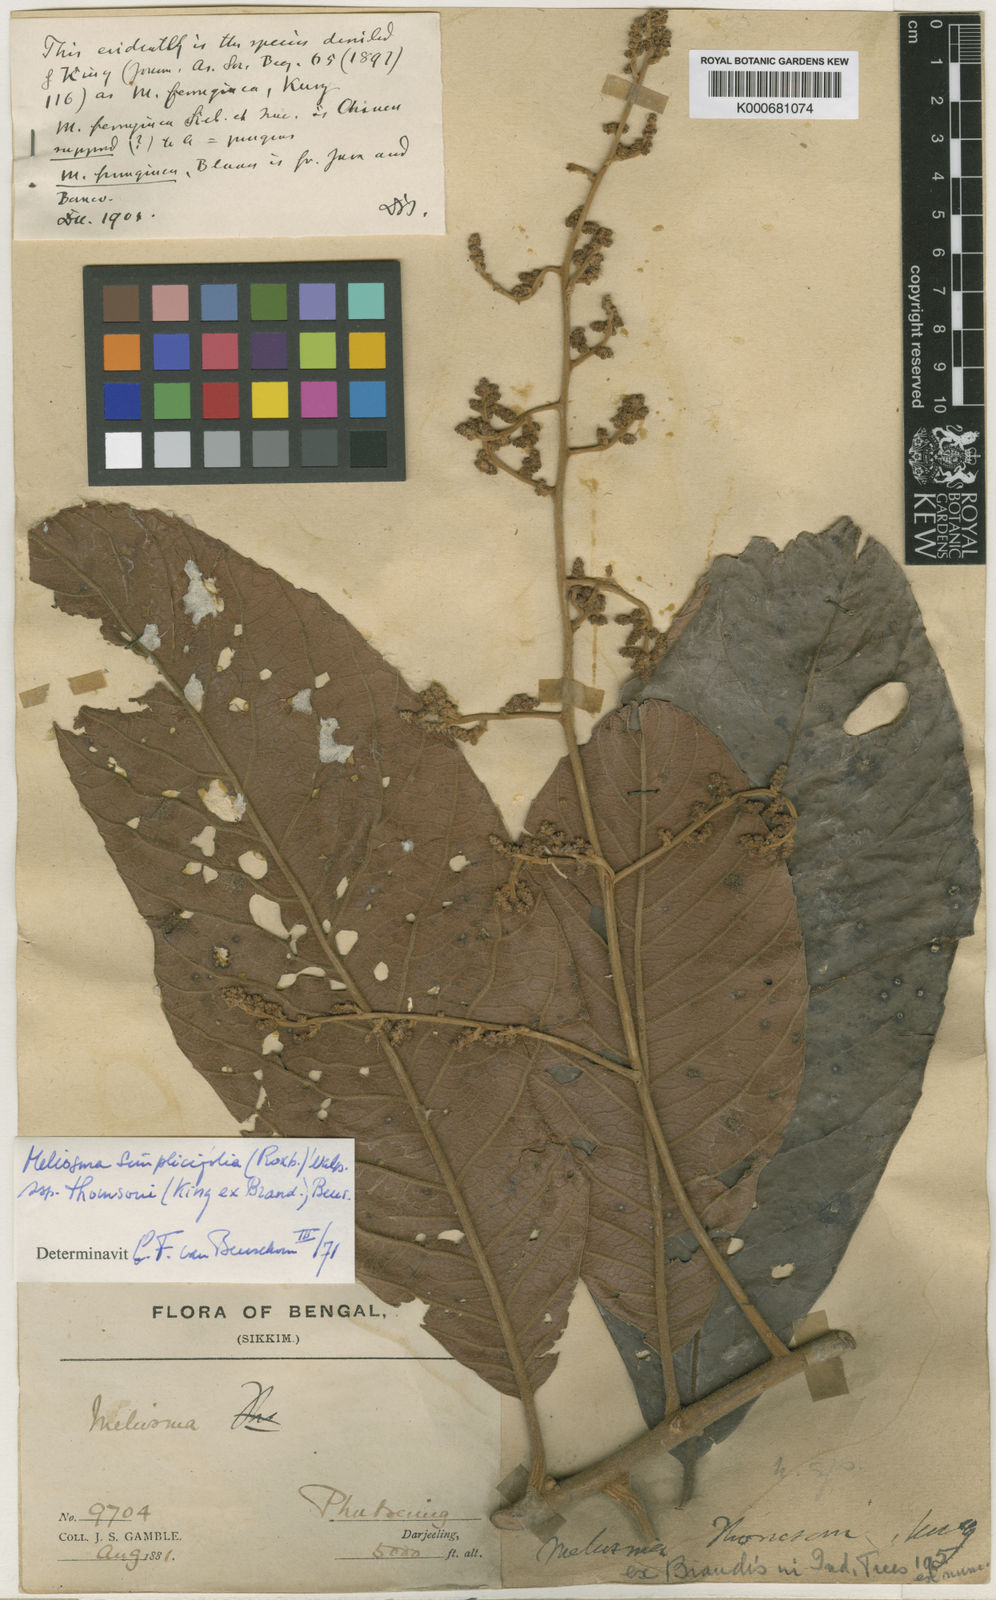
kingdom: Plantae
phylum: Tracheophyta
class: Magnoliopsida
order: Proteales
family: Sabiaceae
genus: Meliosma
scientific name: Meliosma thomsonii
